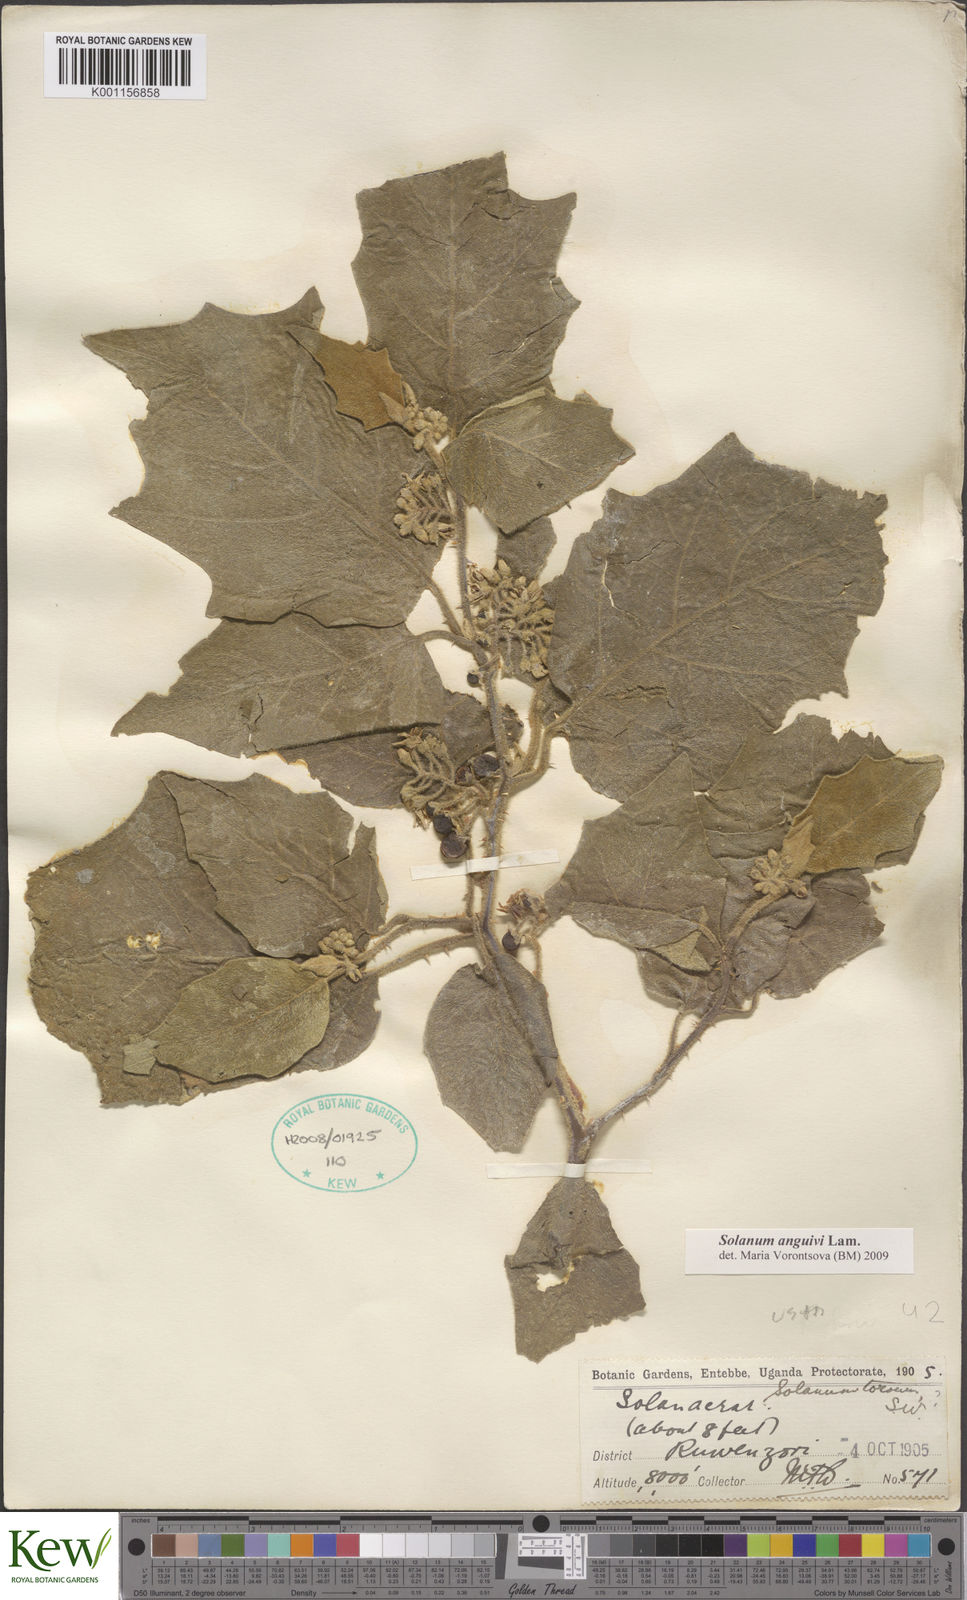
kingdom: Plantae
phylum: Tracheophyta
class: Magnoliopsida
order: Solanales
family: Solanaceae
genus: Solanum
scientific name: Solanum anguivi
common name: Forest bitterberry
